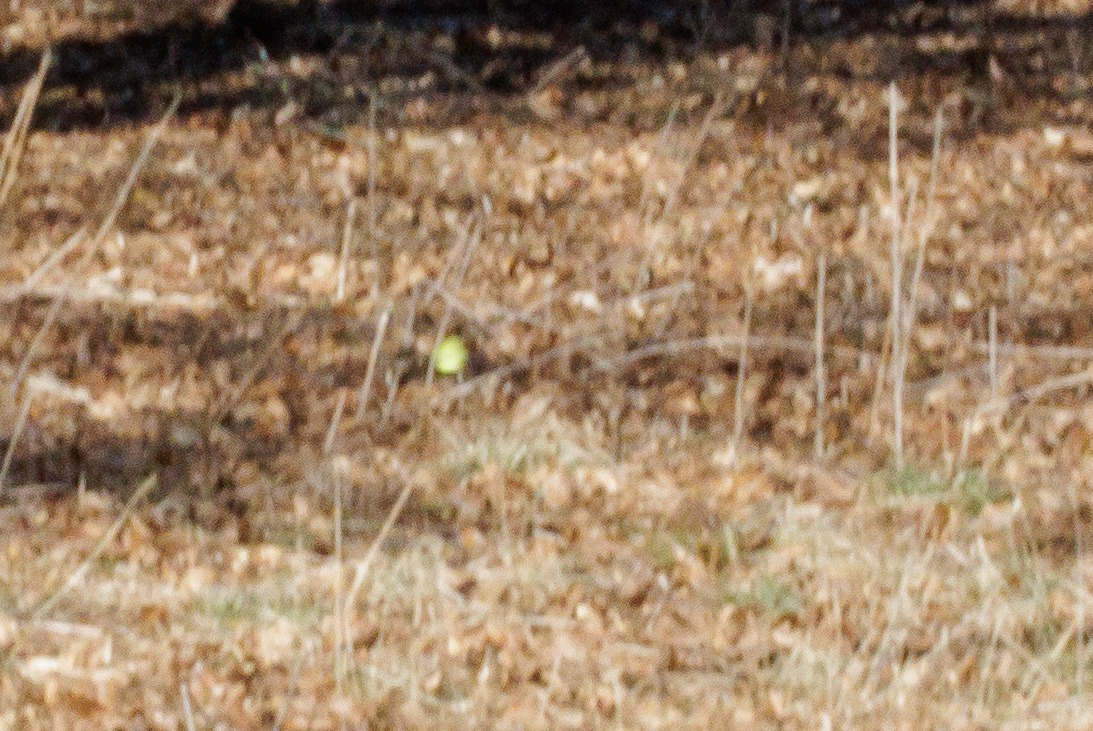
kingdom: Animalia
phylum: Arthropoda
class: Insecta
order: Lepidoptera
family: Pieridae
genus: Gonepteryx
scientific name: Gonepteryx rhamni
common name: Citronsommerfugl
